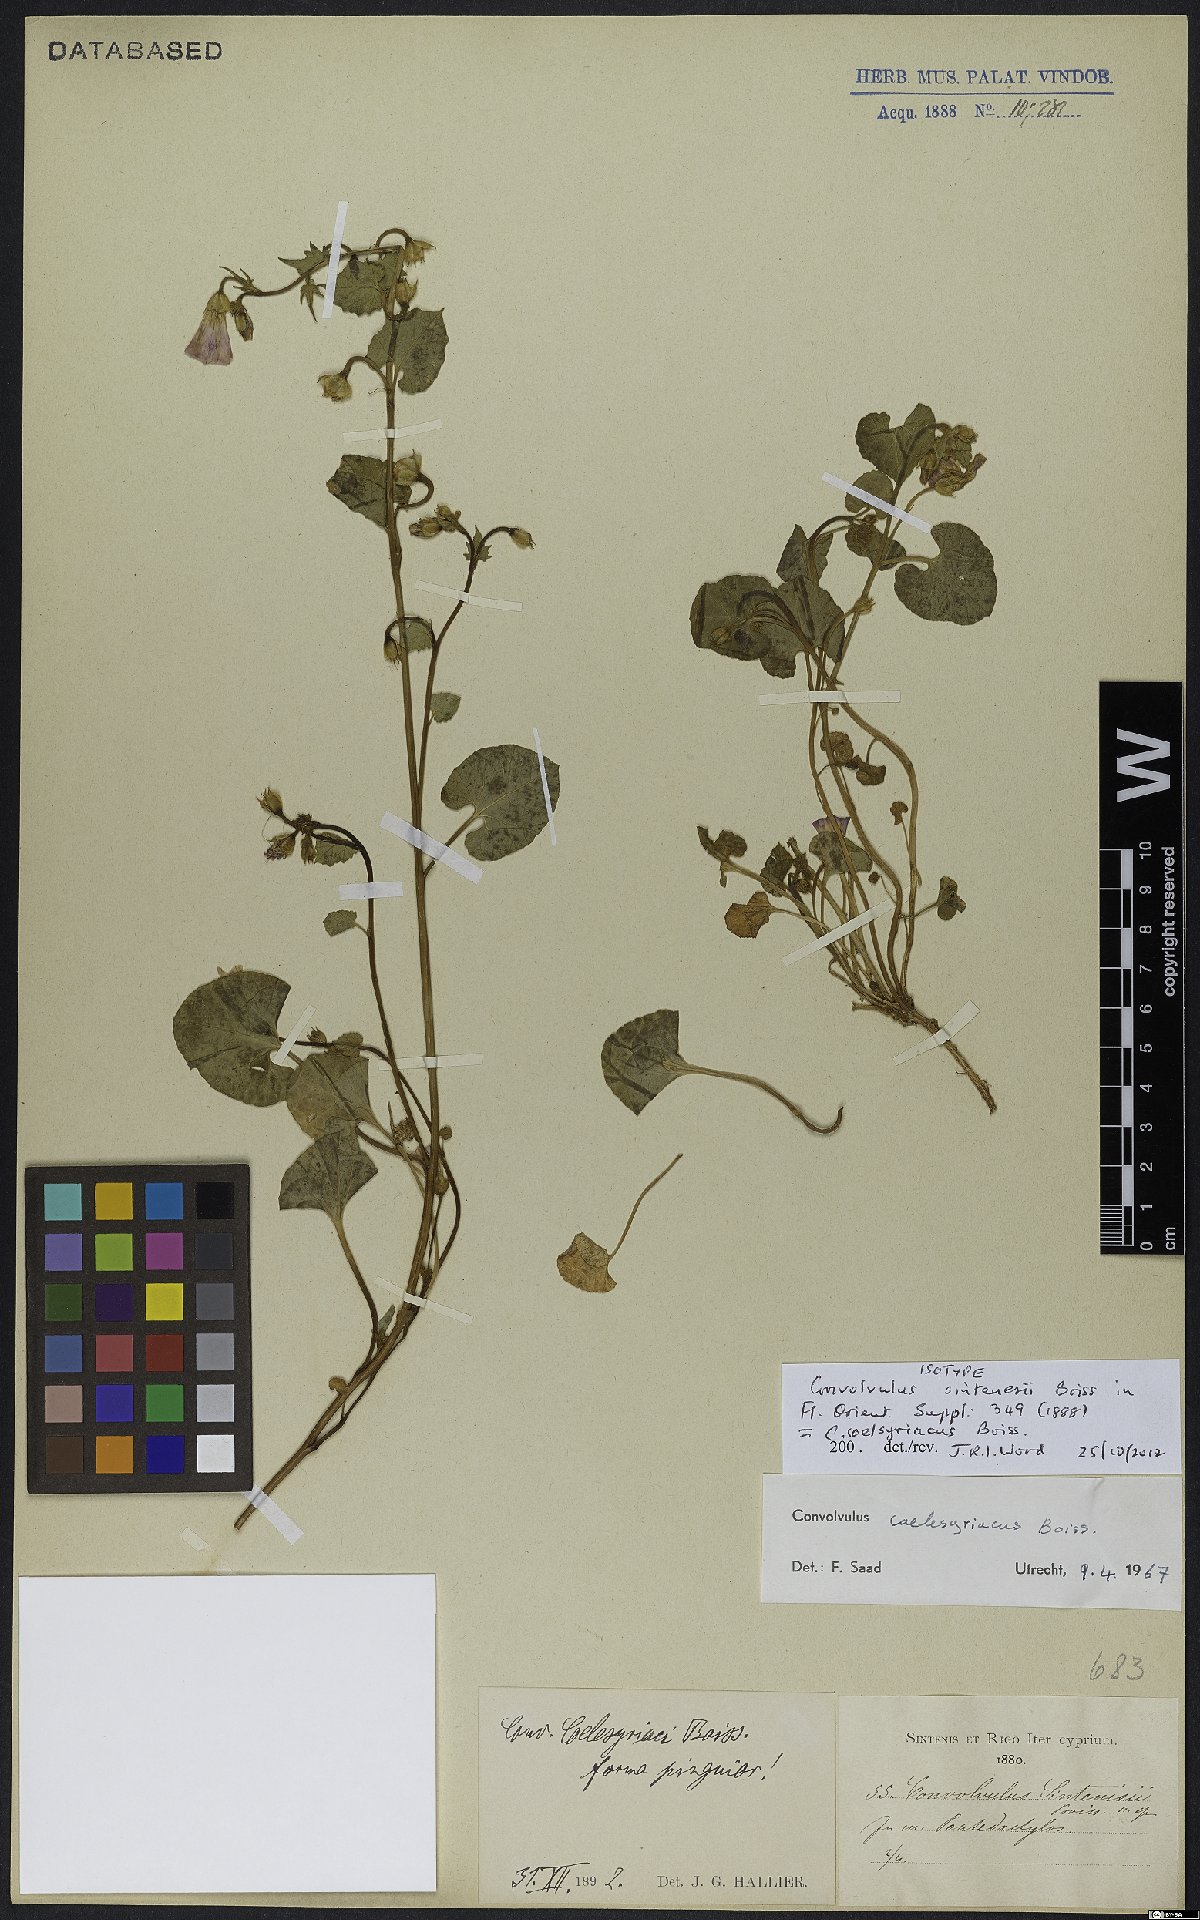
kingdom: Plantae
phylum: Tracheophyta
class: Magnoliopsida
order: Solanales
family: Convolvulaceae
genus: Convolvulus
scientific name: Convolvulus coelesyriacus
